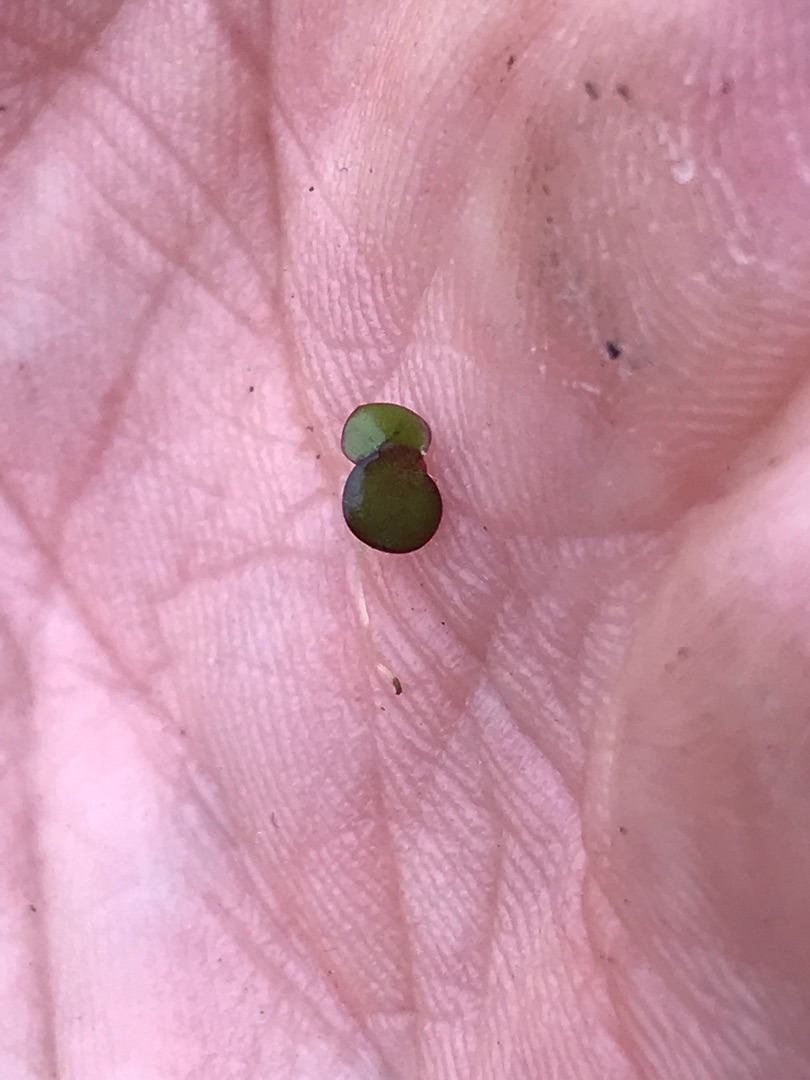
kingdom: Plantae
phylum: Tracheophyta
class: Liliopsida
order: Alismatales
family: Araceae
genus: Lemna
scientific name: Lemna minor
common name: Liden andemad
